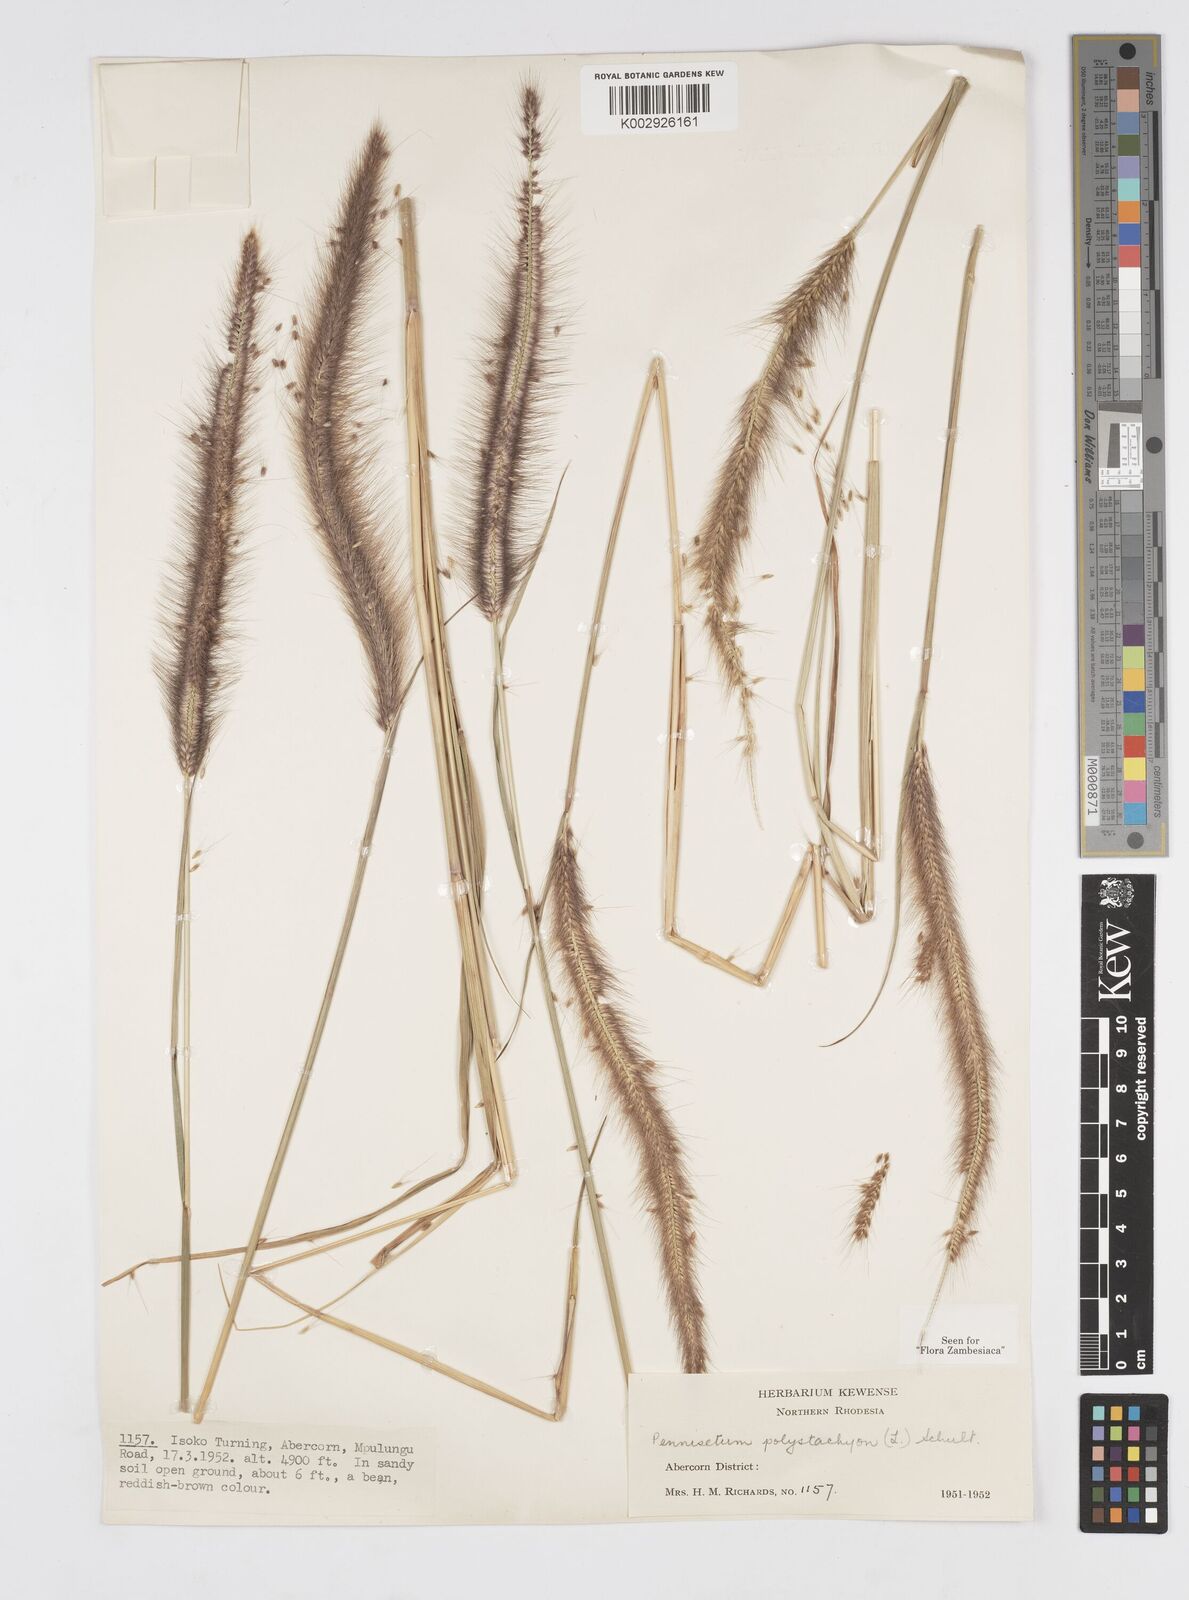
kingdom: Plantae
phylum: Tracheophyta
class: Liliopsida
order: Poales
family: Poaceae
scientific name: Poaceae
